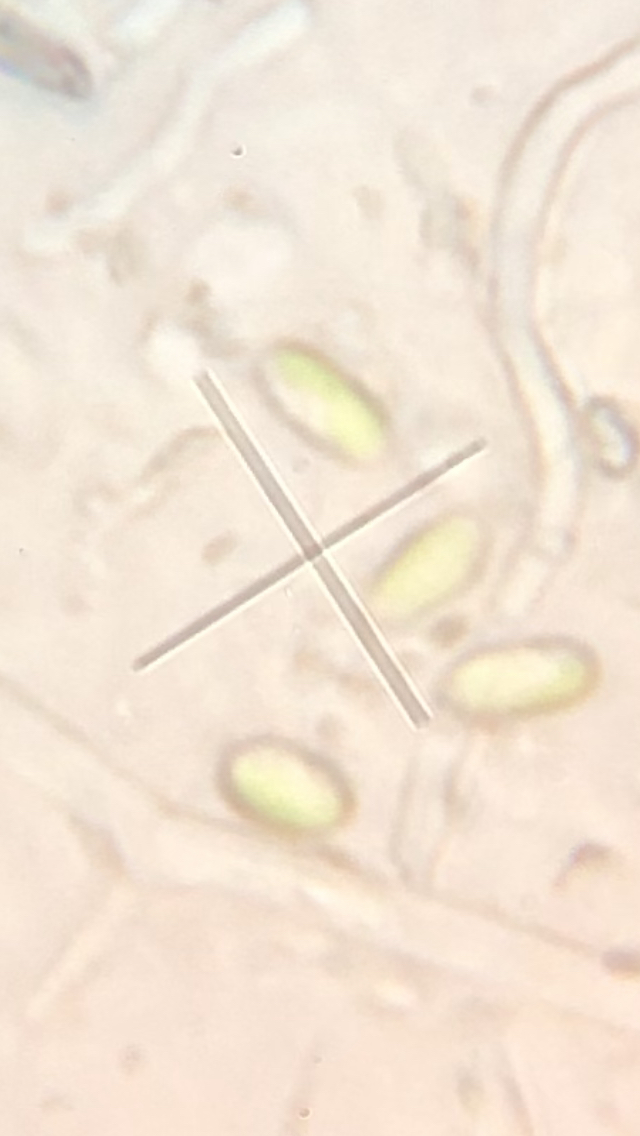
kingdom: Fungi
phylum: Basidiomycota
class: Agaricomycetes
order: Hymenochaetales
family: Rickenellaceae
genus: Sidera
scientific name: Sidera vulgaris
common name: fin flødeporesvamp
